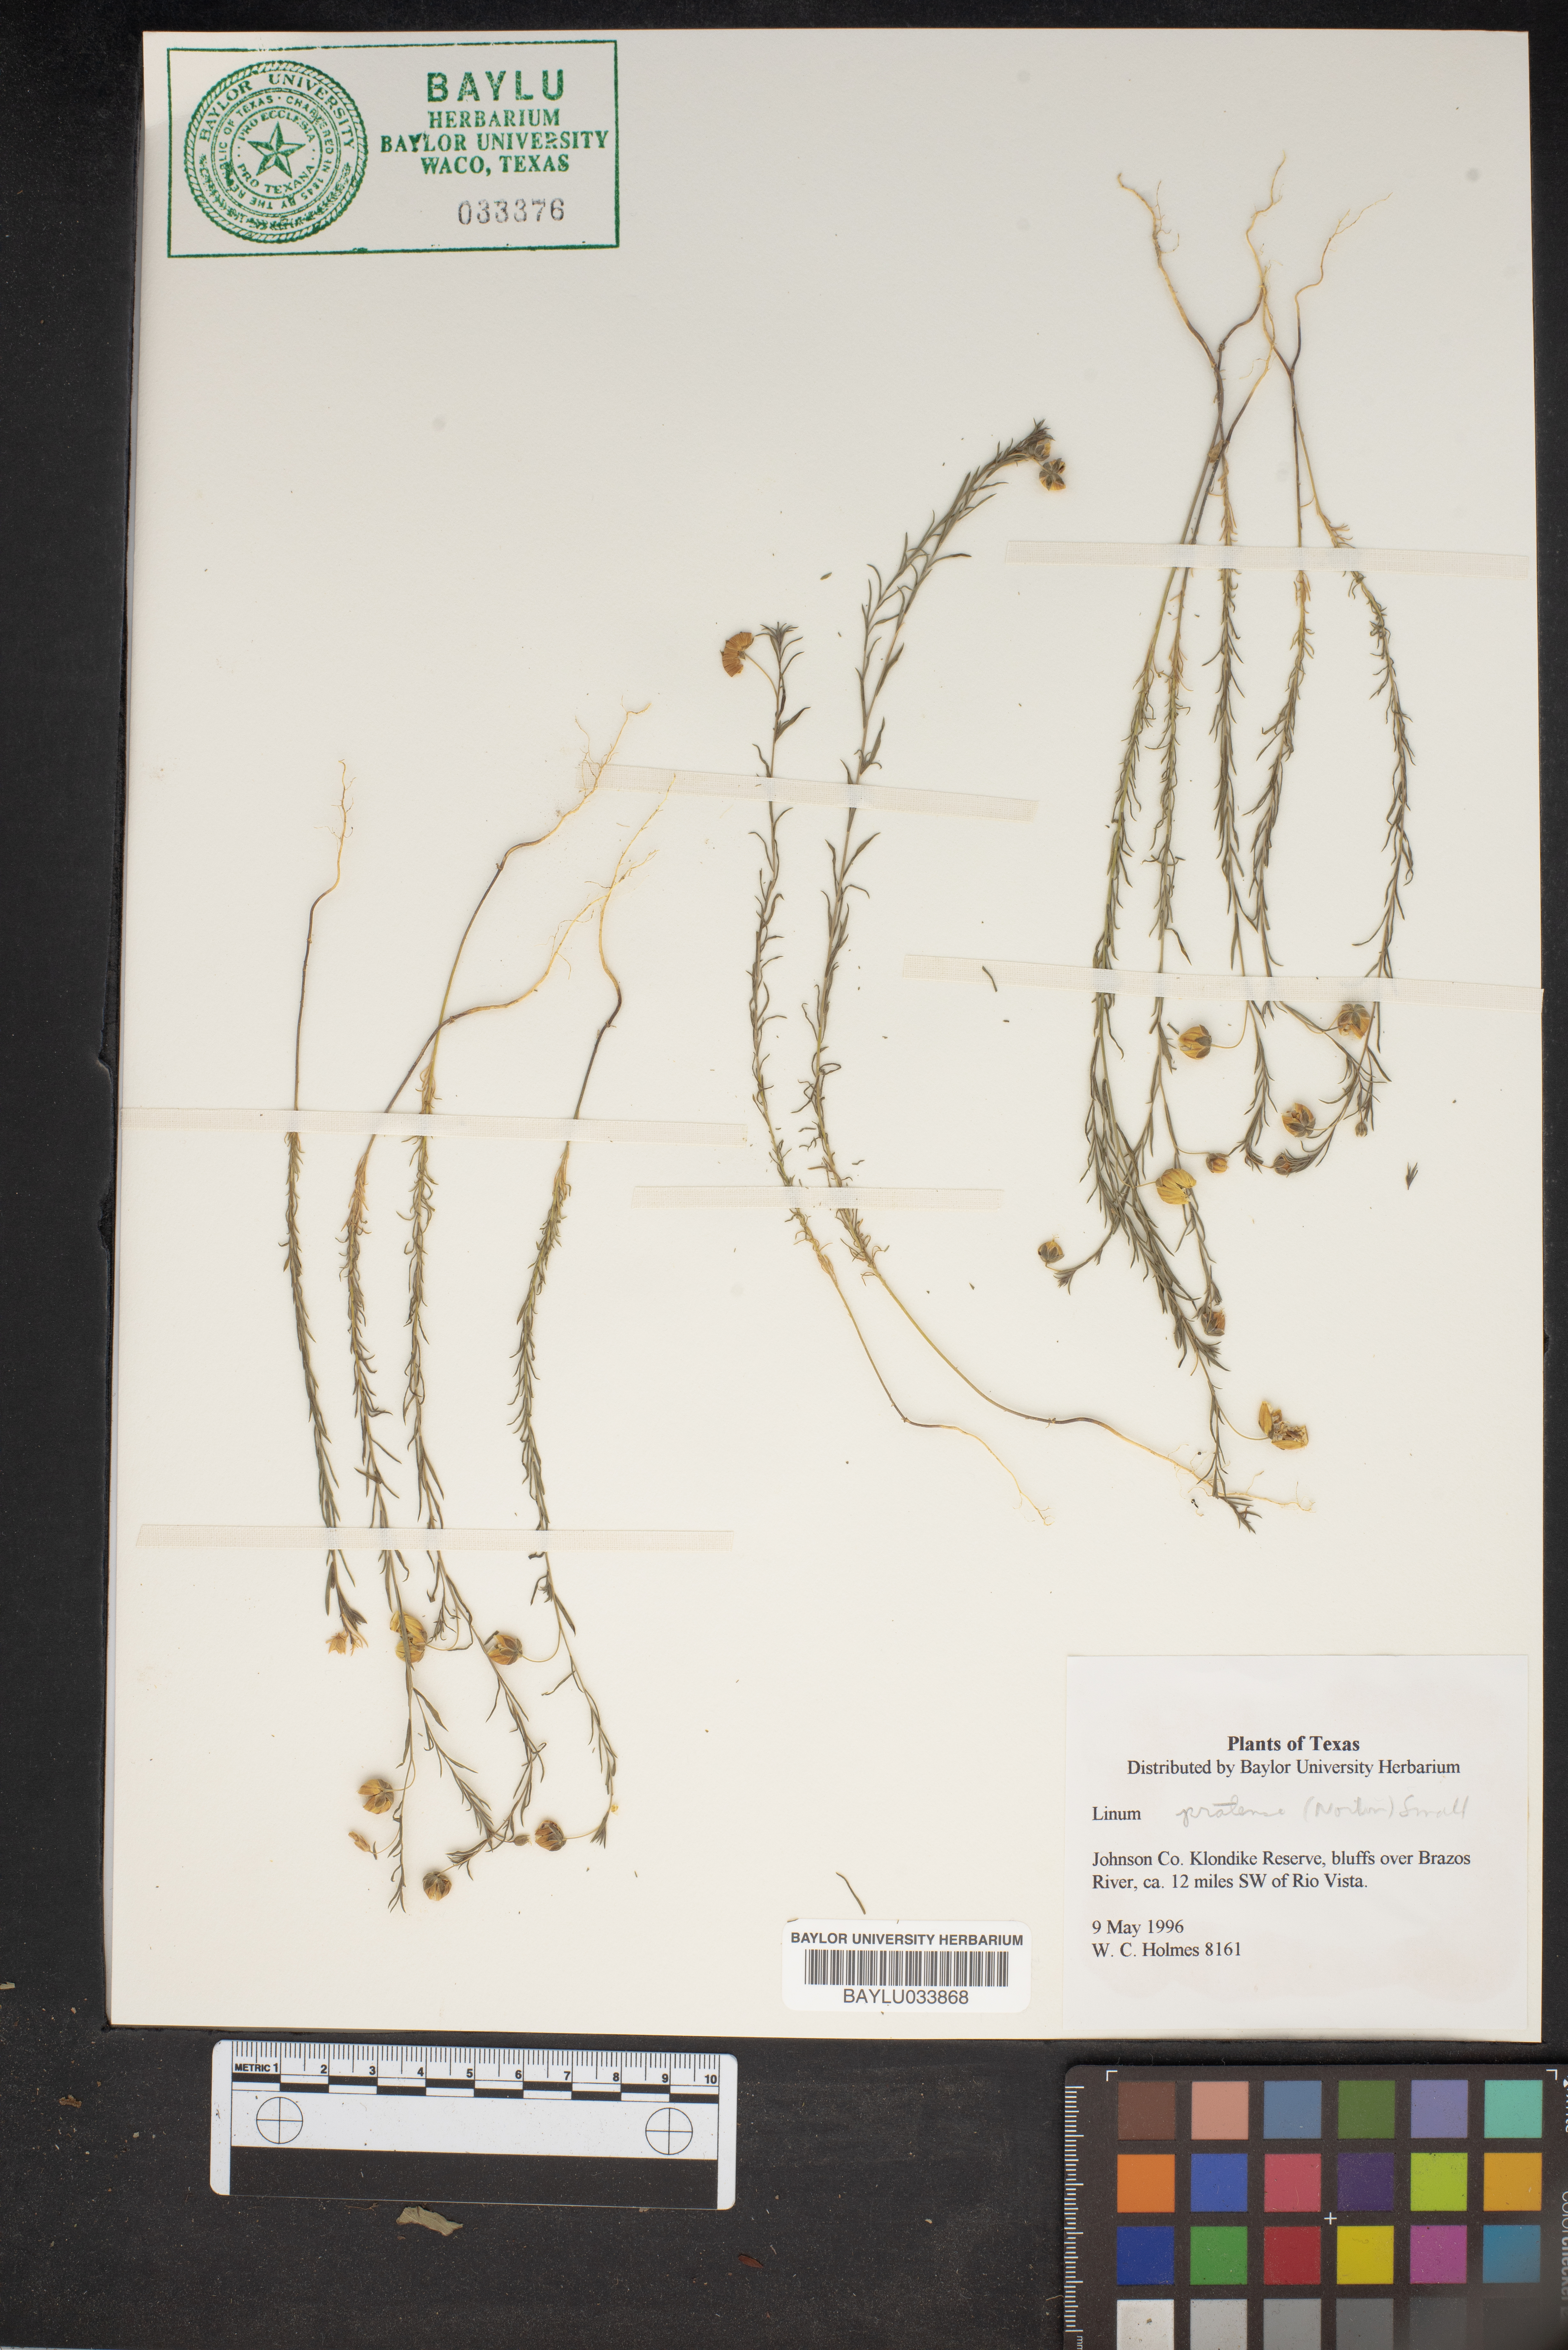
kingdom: Plantae
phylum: Tracheophyta
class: Magnoliopsida
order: Malpighiales
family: Linaceae
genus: Linum
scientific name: Linum pratense
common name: Norton's flax
